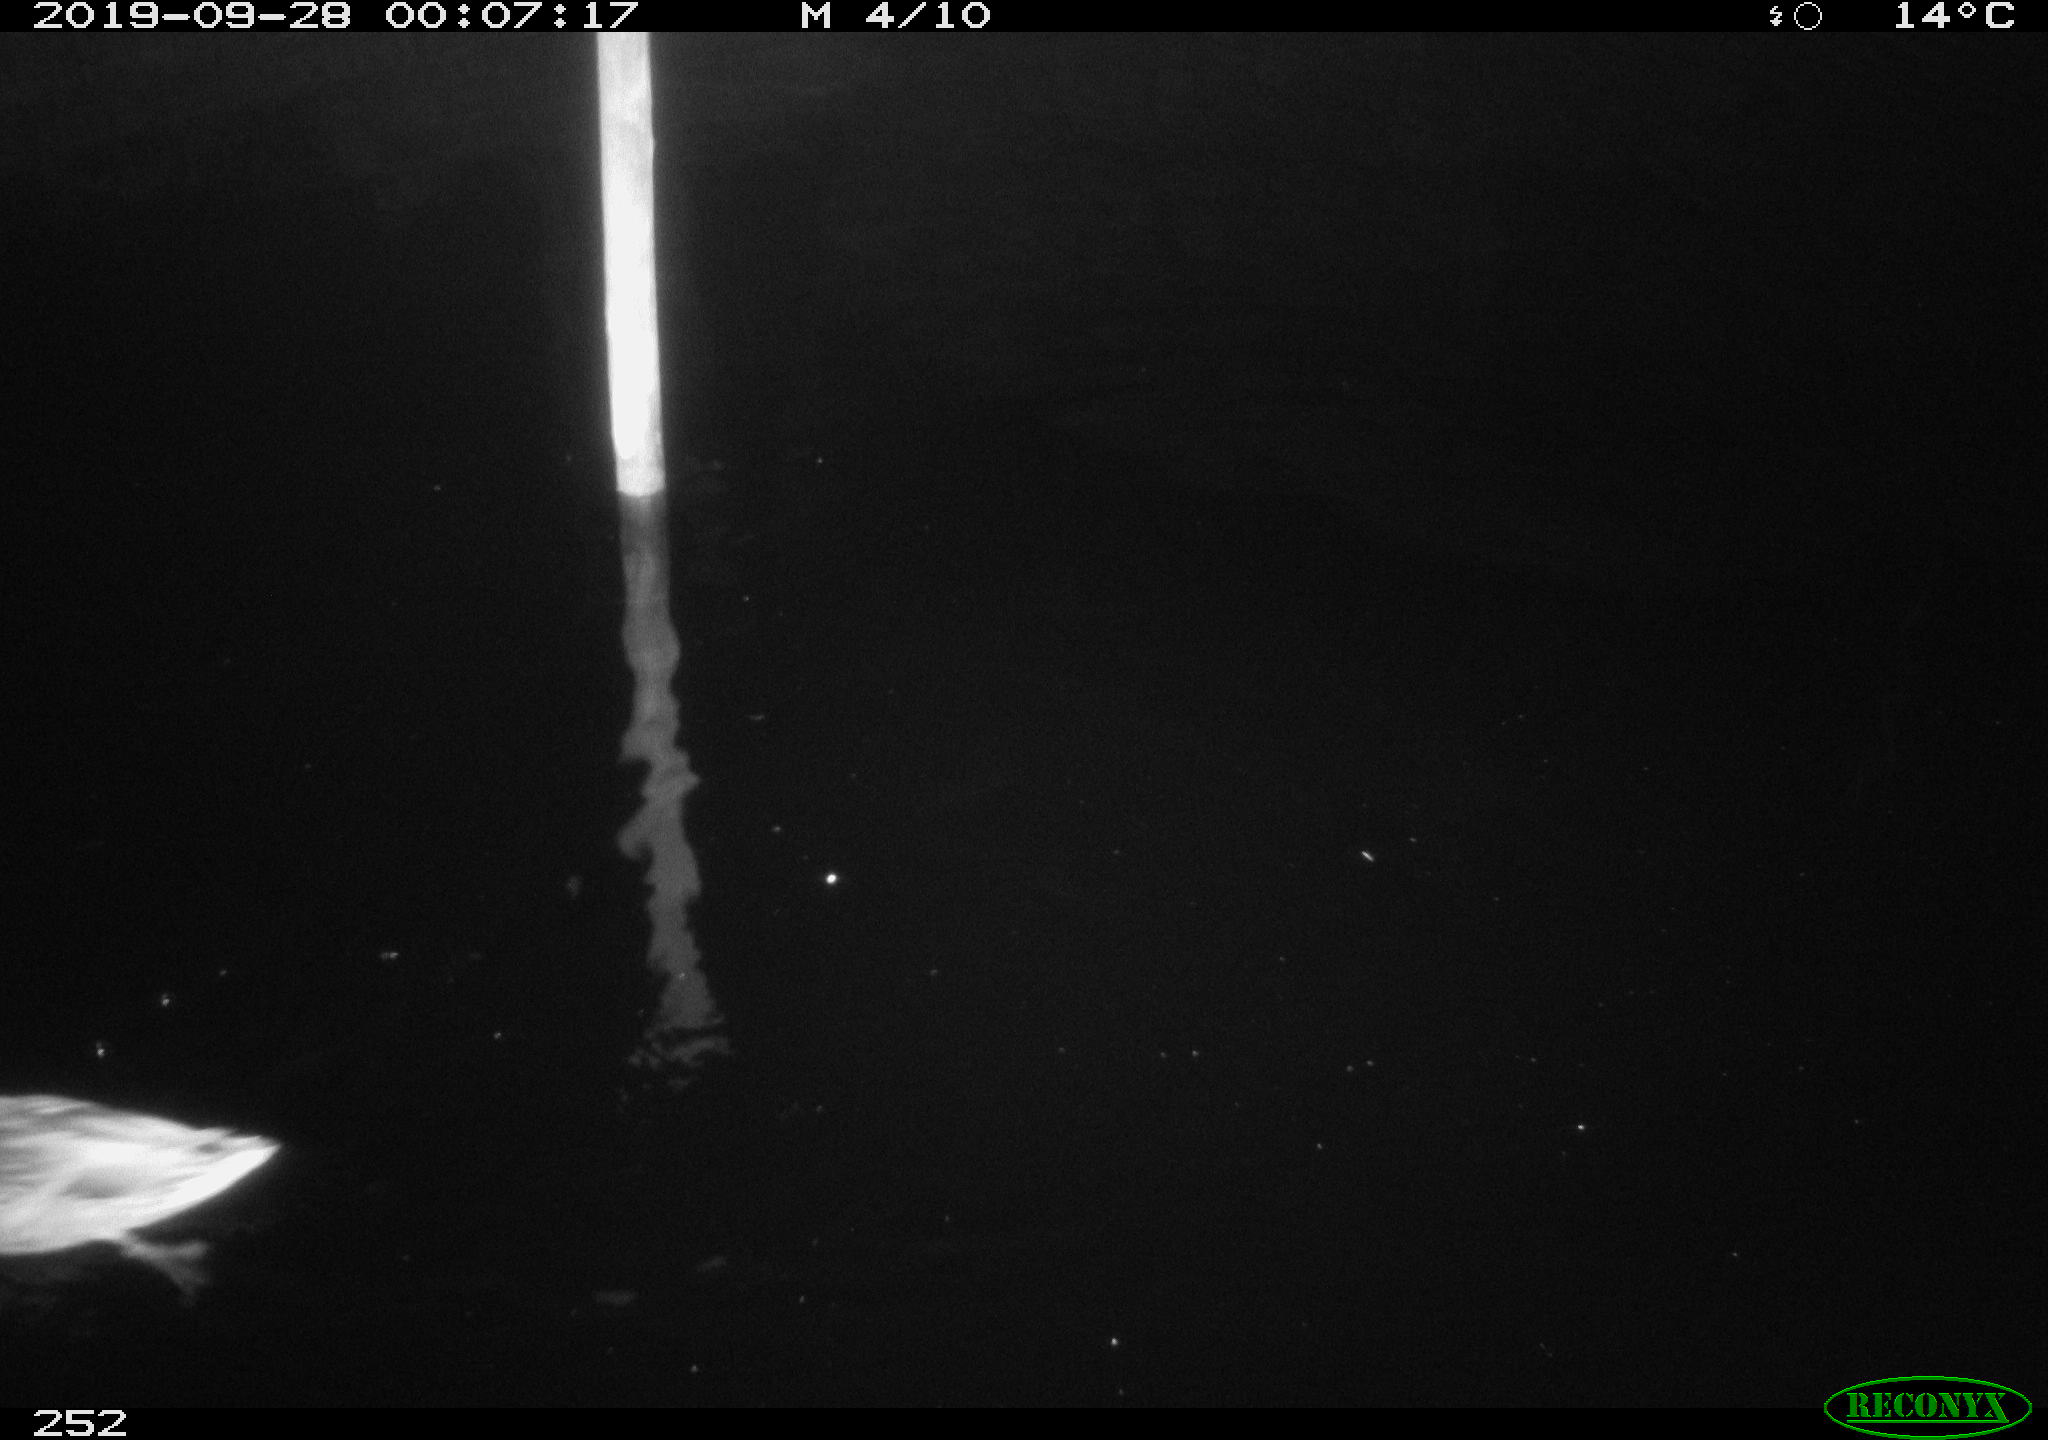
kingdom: Animalia
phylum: Chordata
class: Aves
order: Anseriformes
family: Anatidae
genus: Anas
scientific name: Anas platyrhynchos
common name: Mallard
